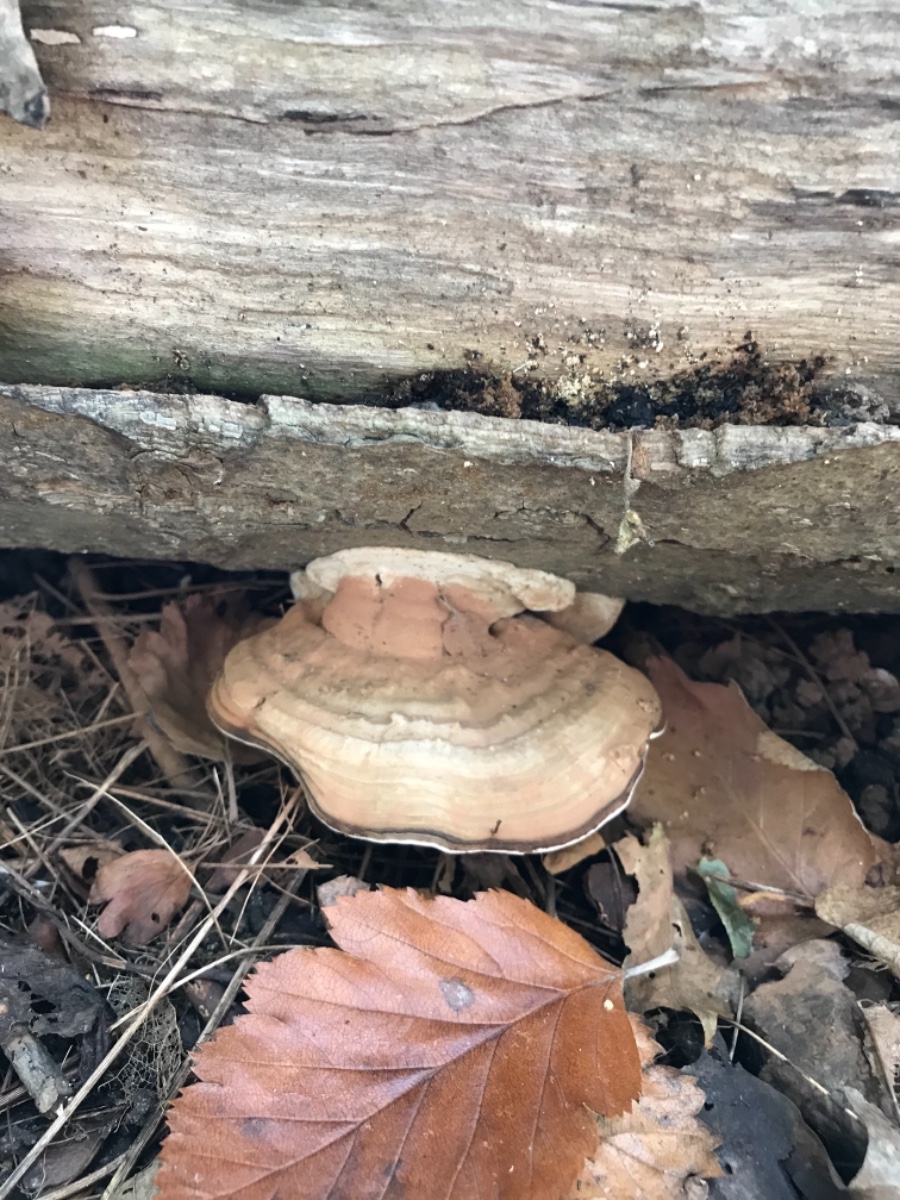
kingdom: Fungi
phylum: Basidiomycota
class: Agaricomycetes
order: Polyporales
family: Polyporaceae
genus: Ganoderma
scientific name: Ganoderma applanatum
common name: flad lakporesvamp
